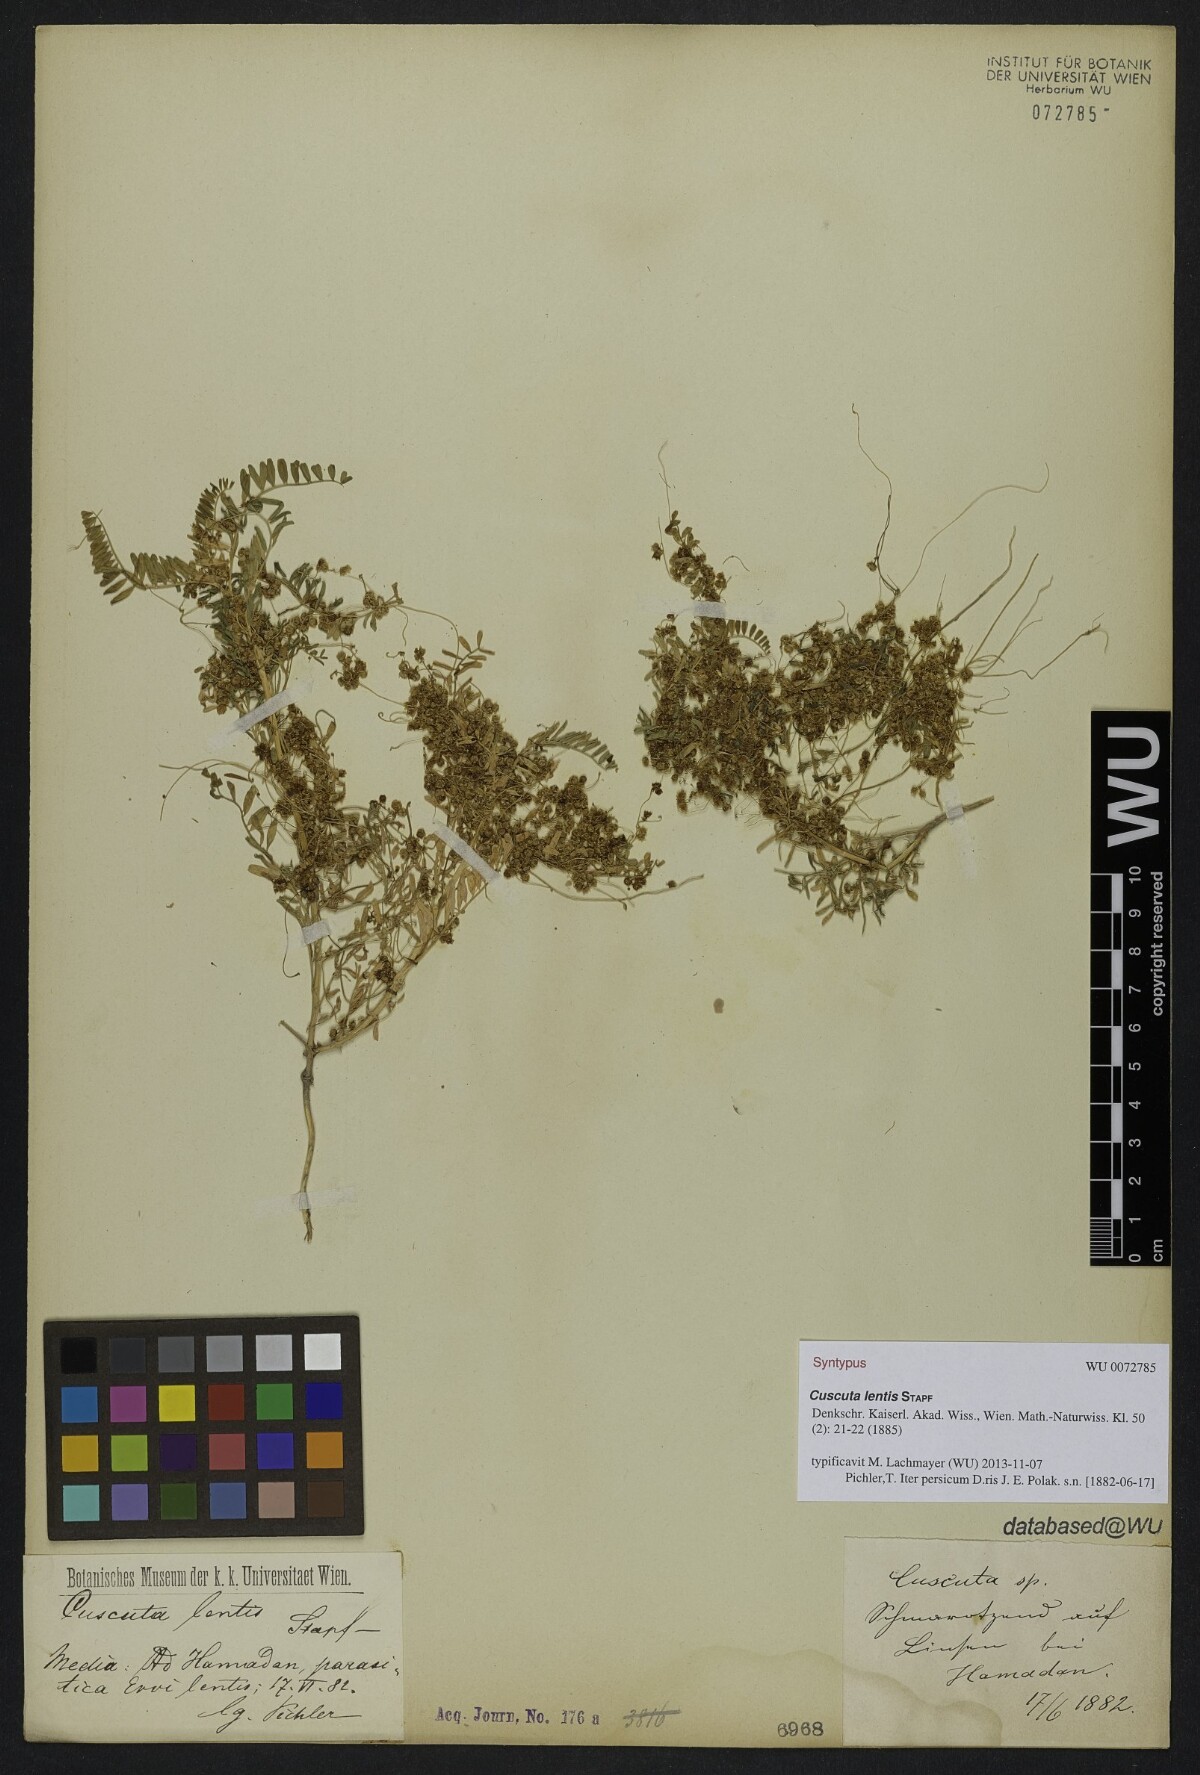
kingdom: Plantae
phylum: Tracheophyta
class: Magnoliopsida
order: Solanales
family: Convolvulaceae
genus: Cuscuta
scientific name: Cuscuta pedicellata
